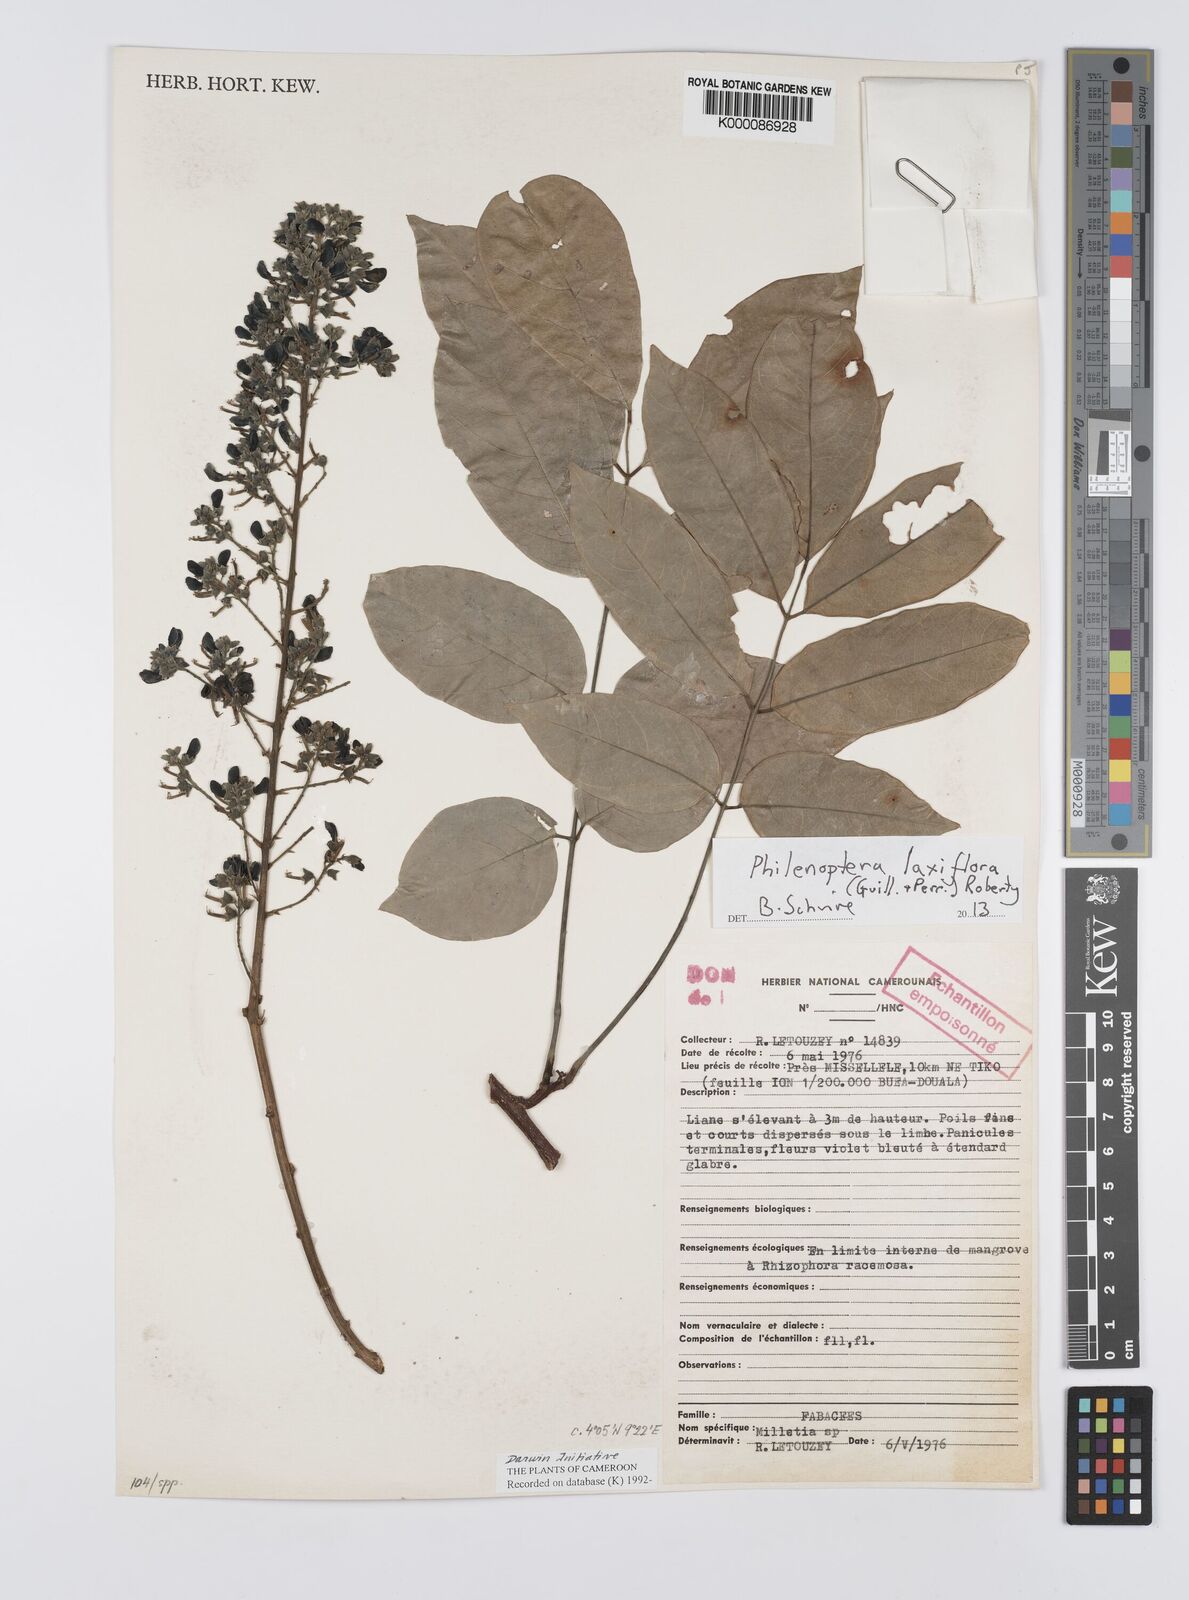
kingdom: Plantae
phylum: Tracheophyta
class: Magnoliopsida
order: Fabales
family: Fabaceae
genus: Millettia
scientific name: Millettia
